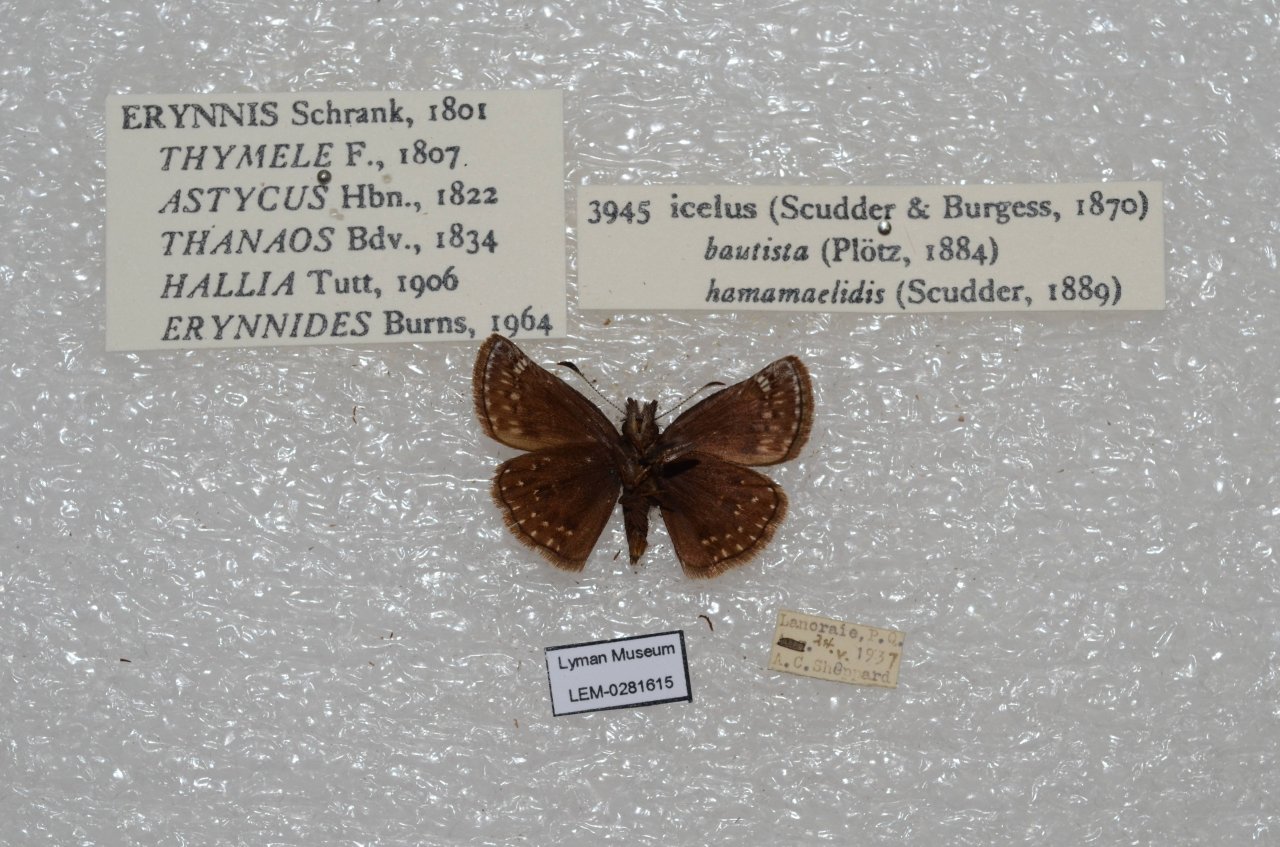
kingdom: Animalia
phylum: Arthropoda
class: Insecta
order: Lepidoptera
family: Hesperiidae
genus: Erynnis
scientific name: Erynnis icelus
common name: Dreamy Duskywing
